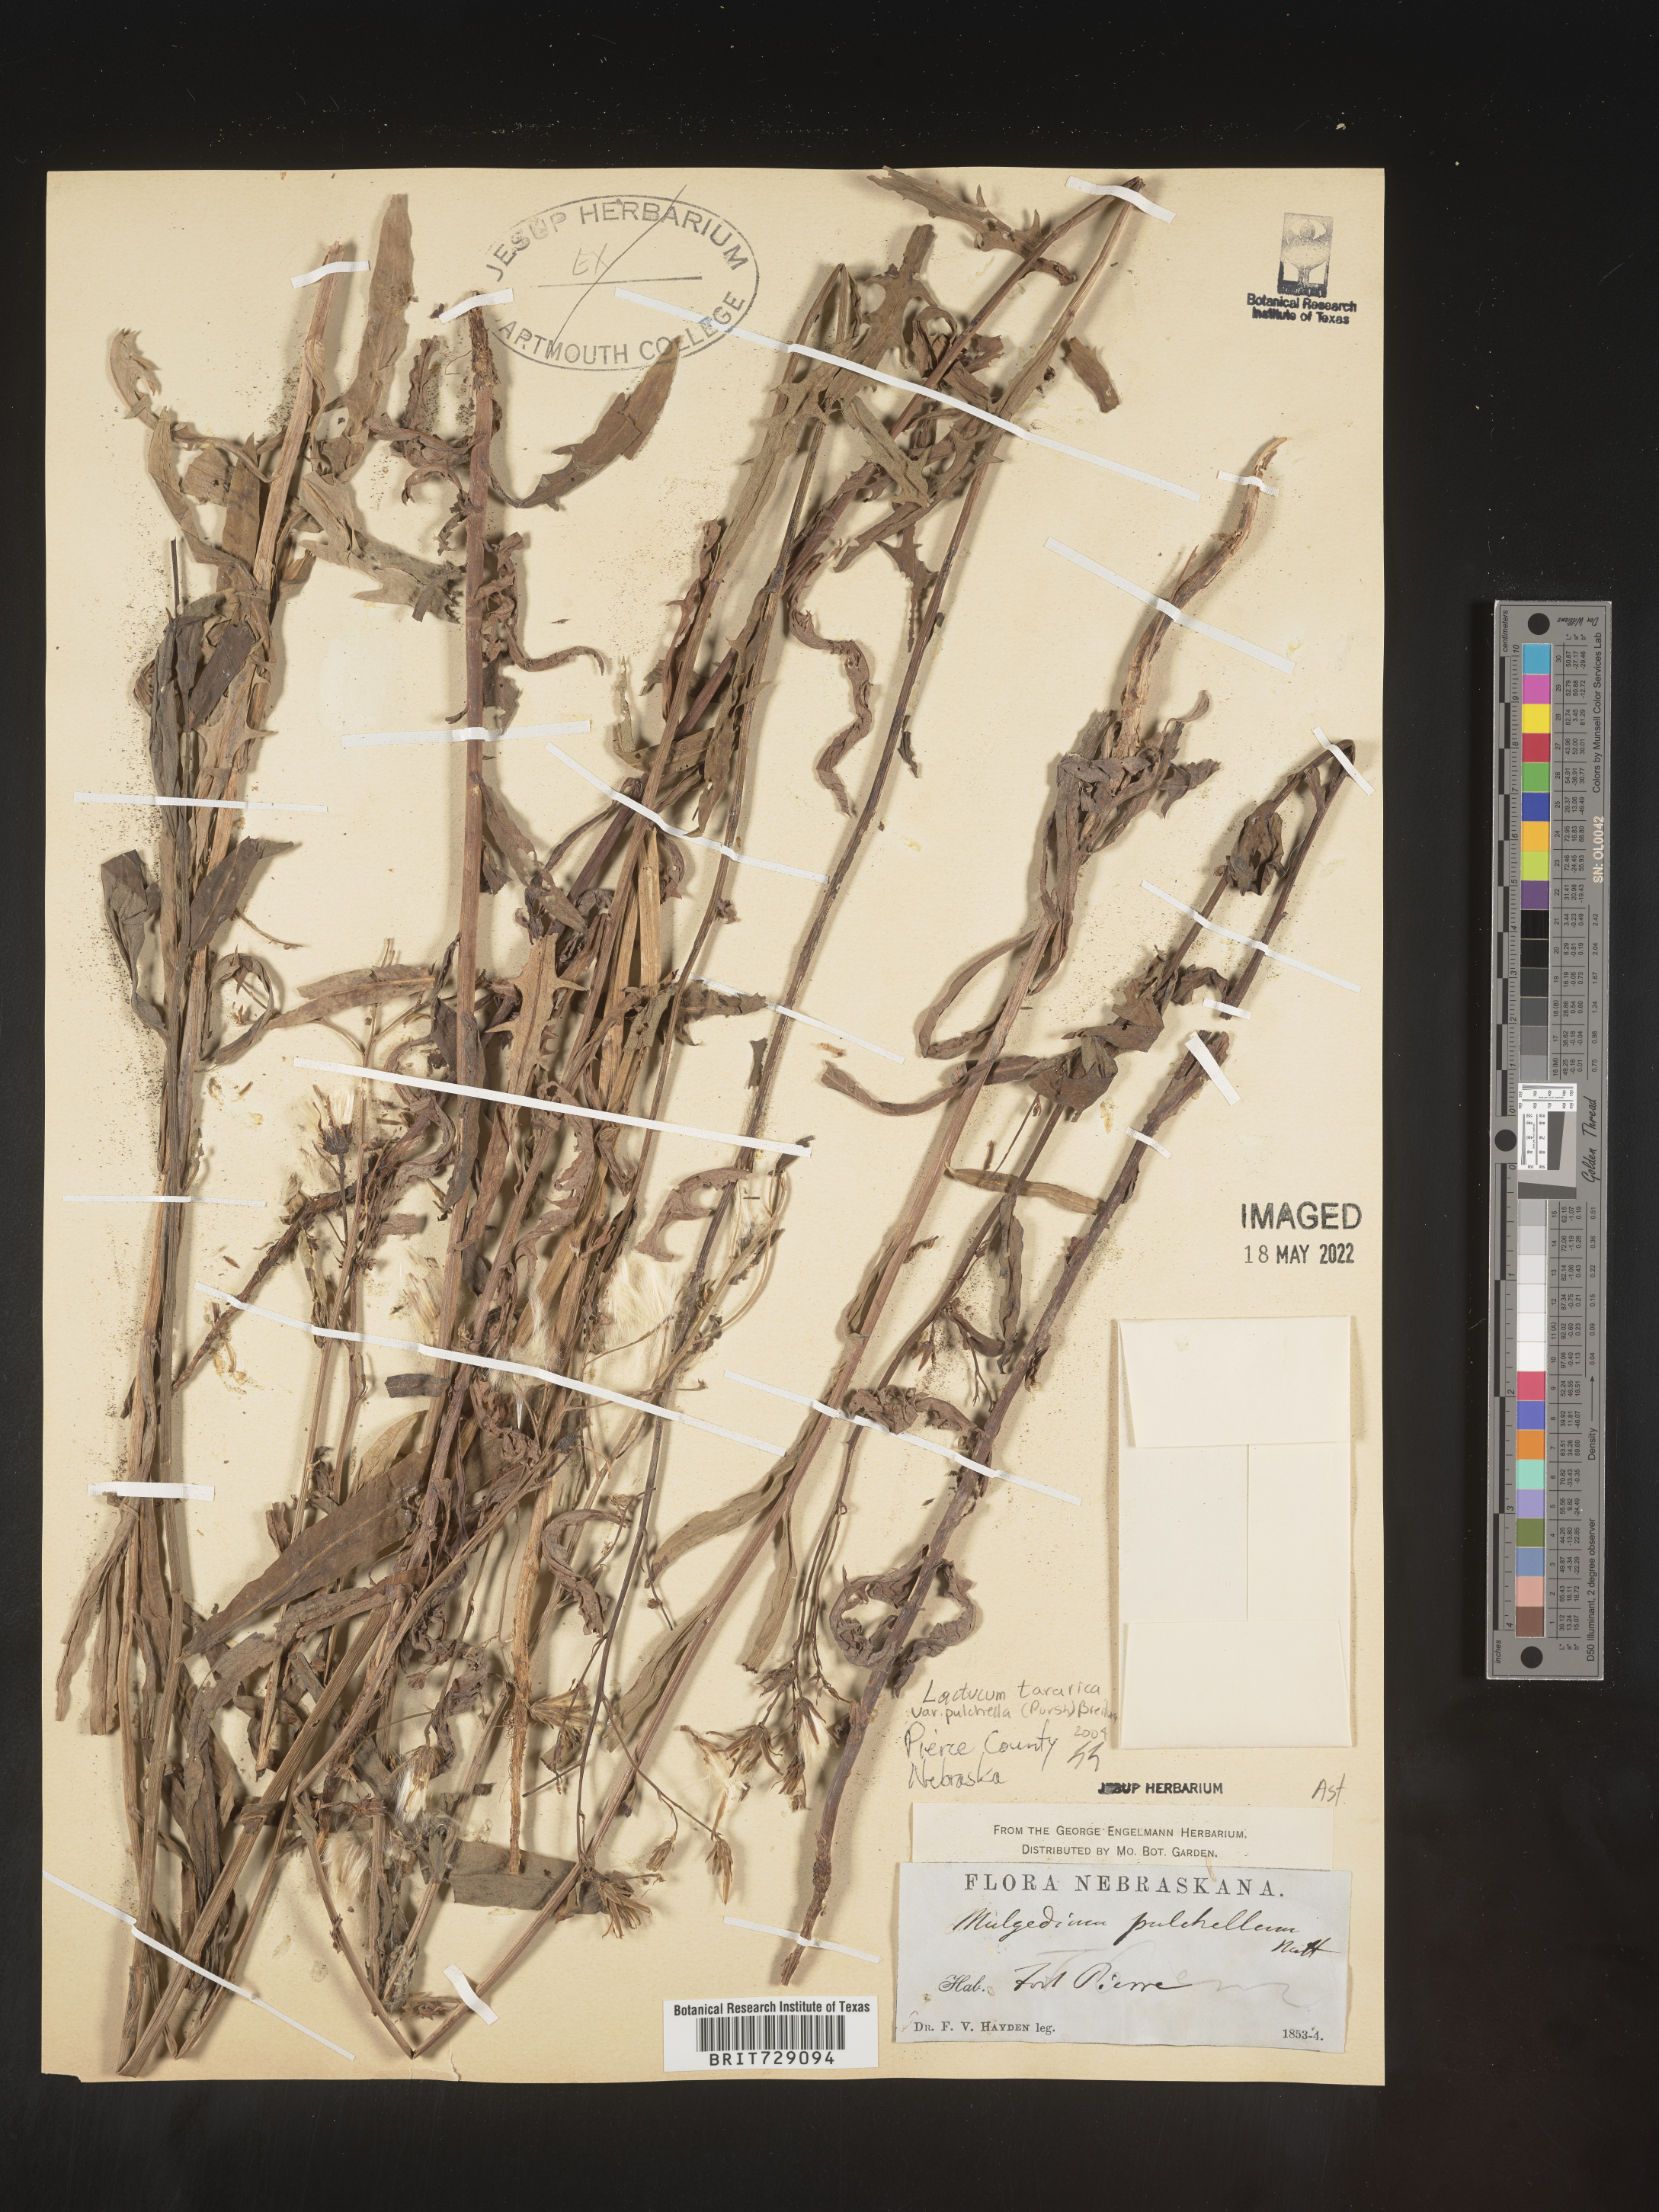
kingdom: Plantae
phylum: Tracheophyta
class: Magnoliopsida
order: Asterales
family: Asteraceae
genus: Lactuca
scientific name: Lactuca
